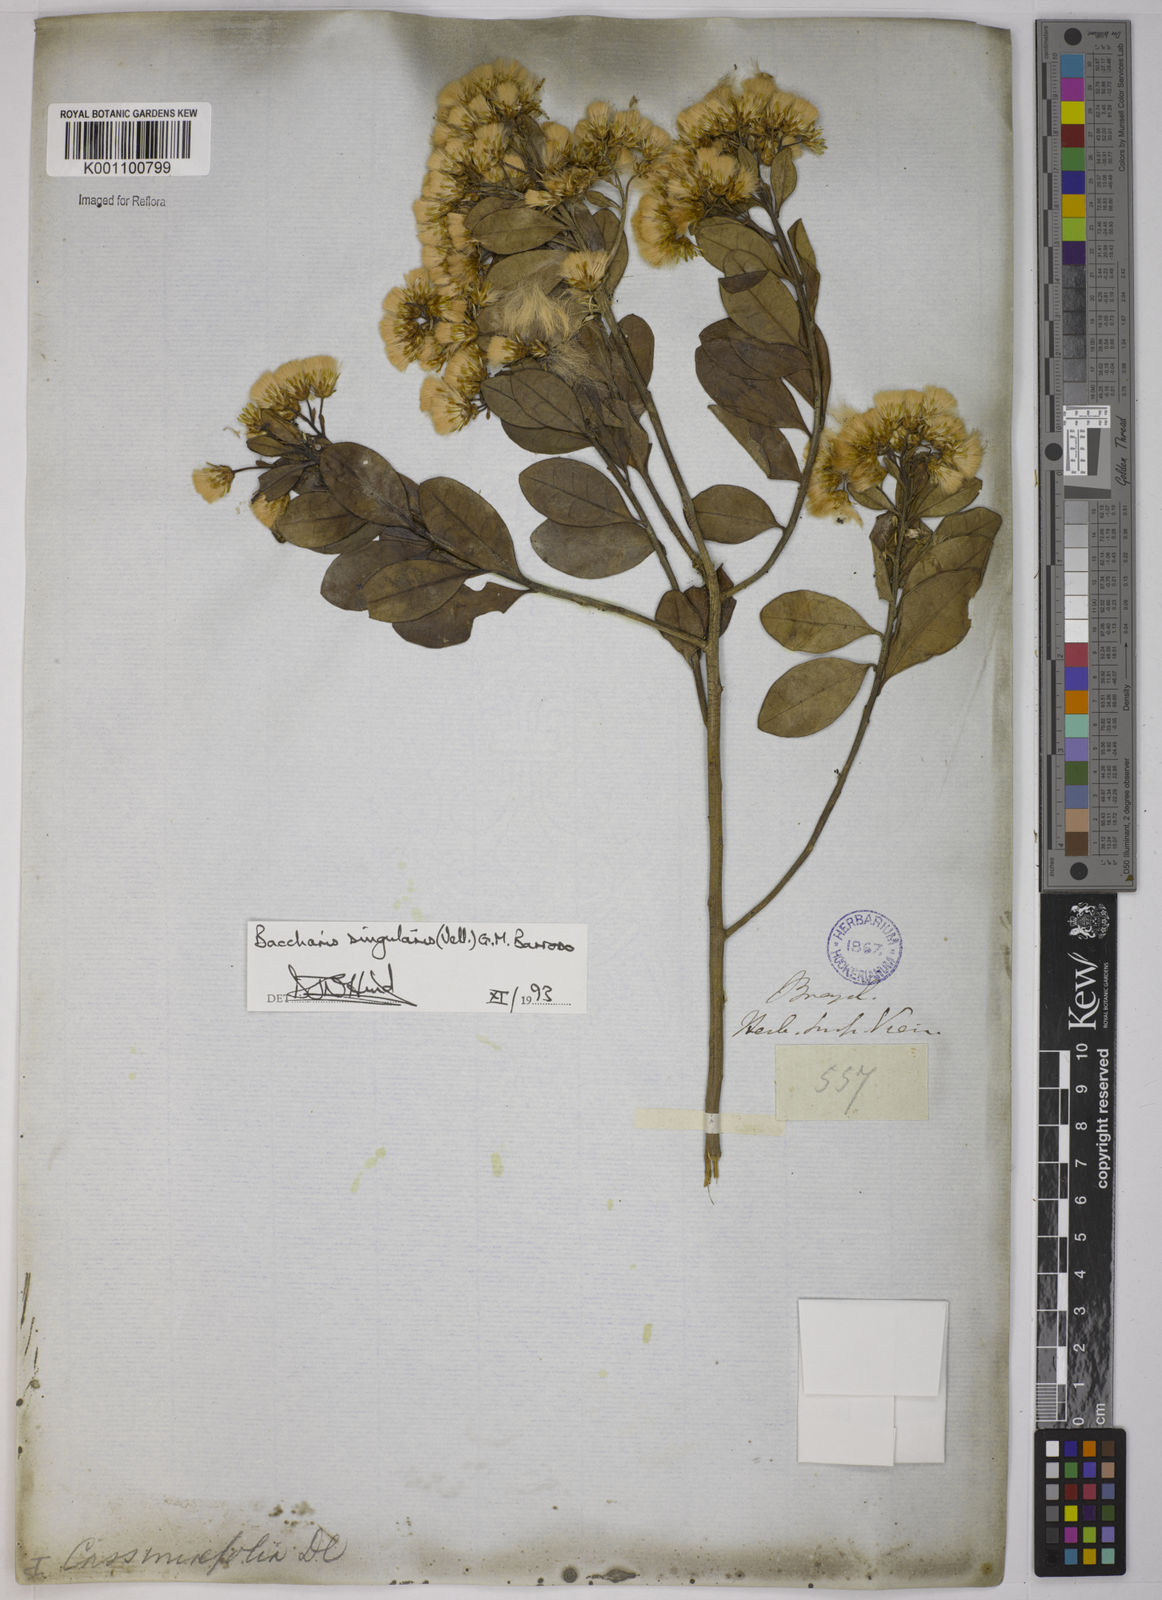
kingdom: Plantae
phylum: Tracheophyta
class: Magnoliopsida
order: Asterales
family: Asteraceae
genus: Baccharis
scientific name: Baccharis
